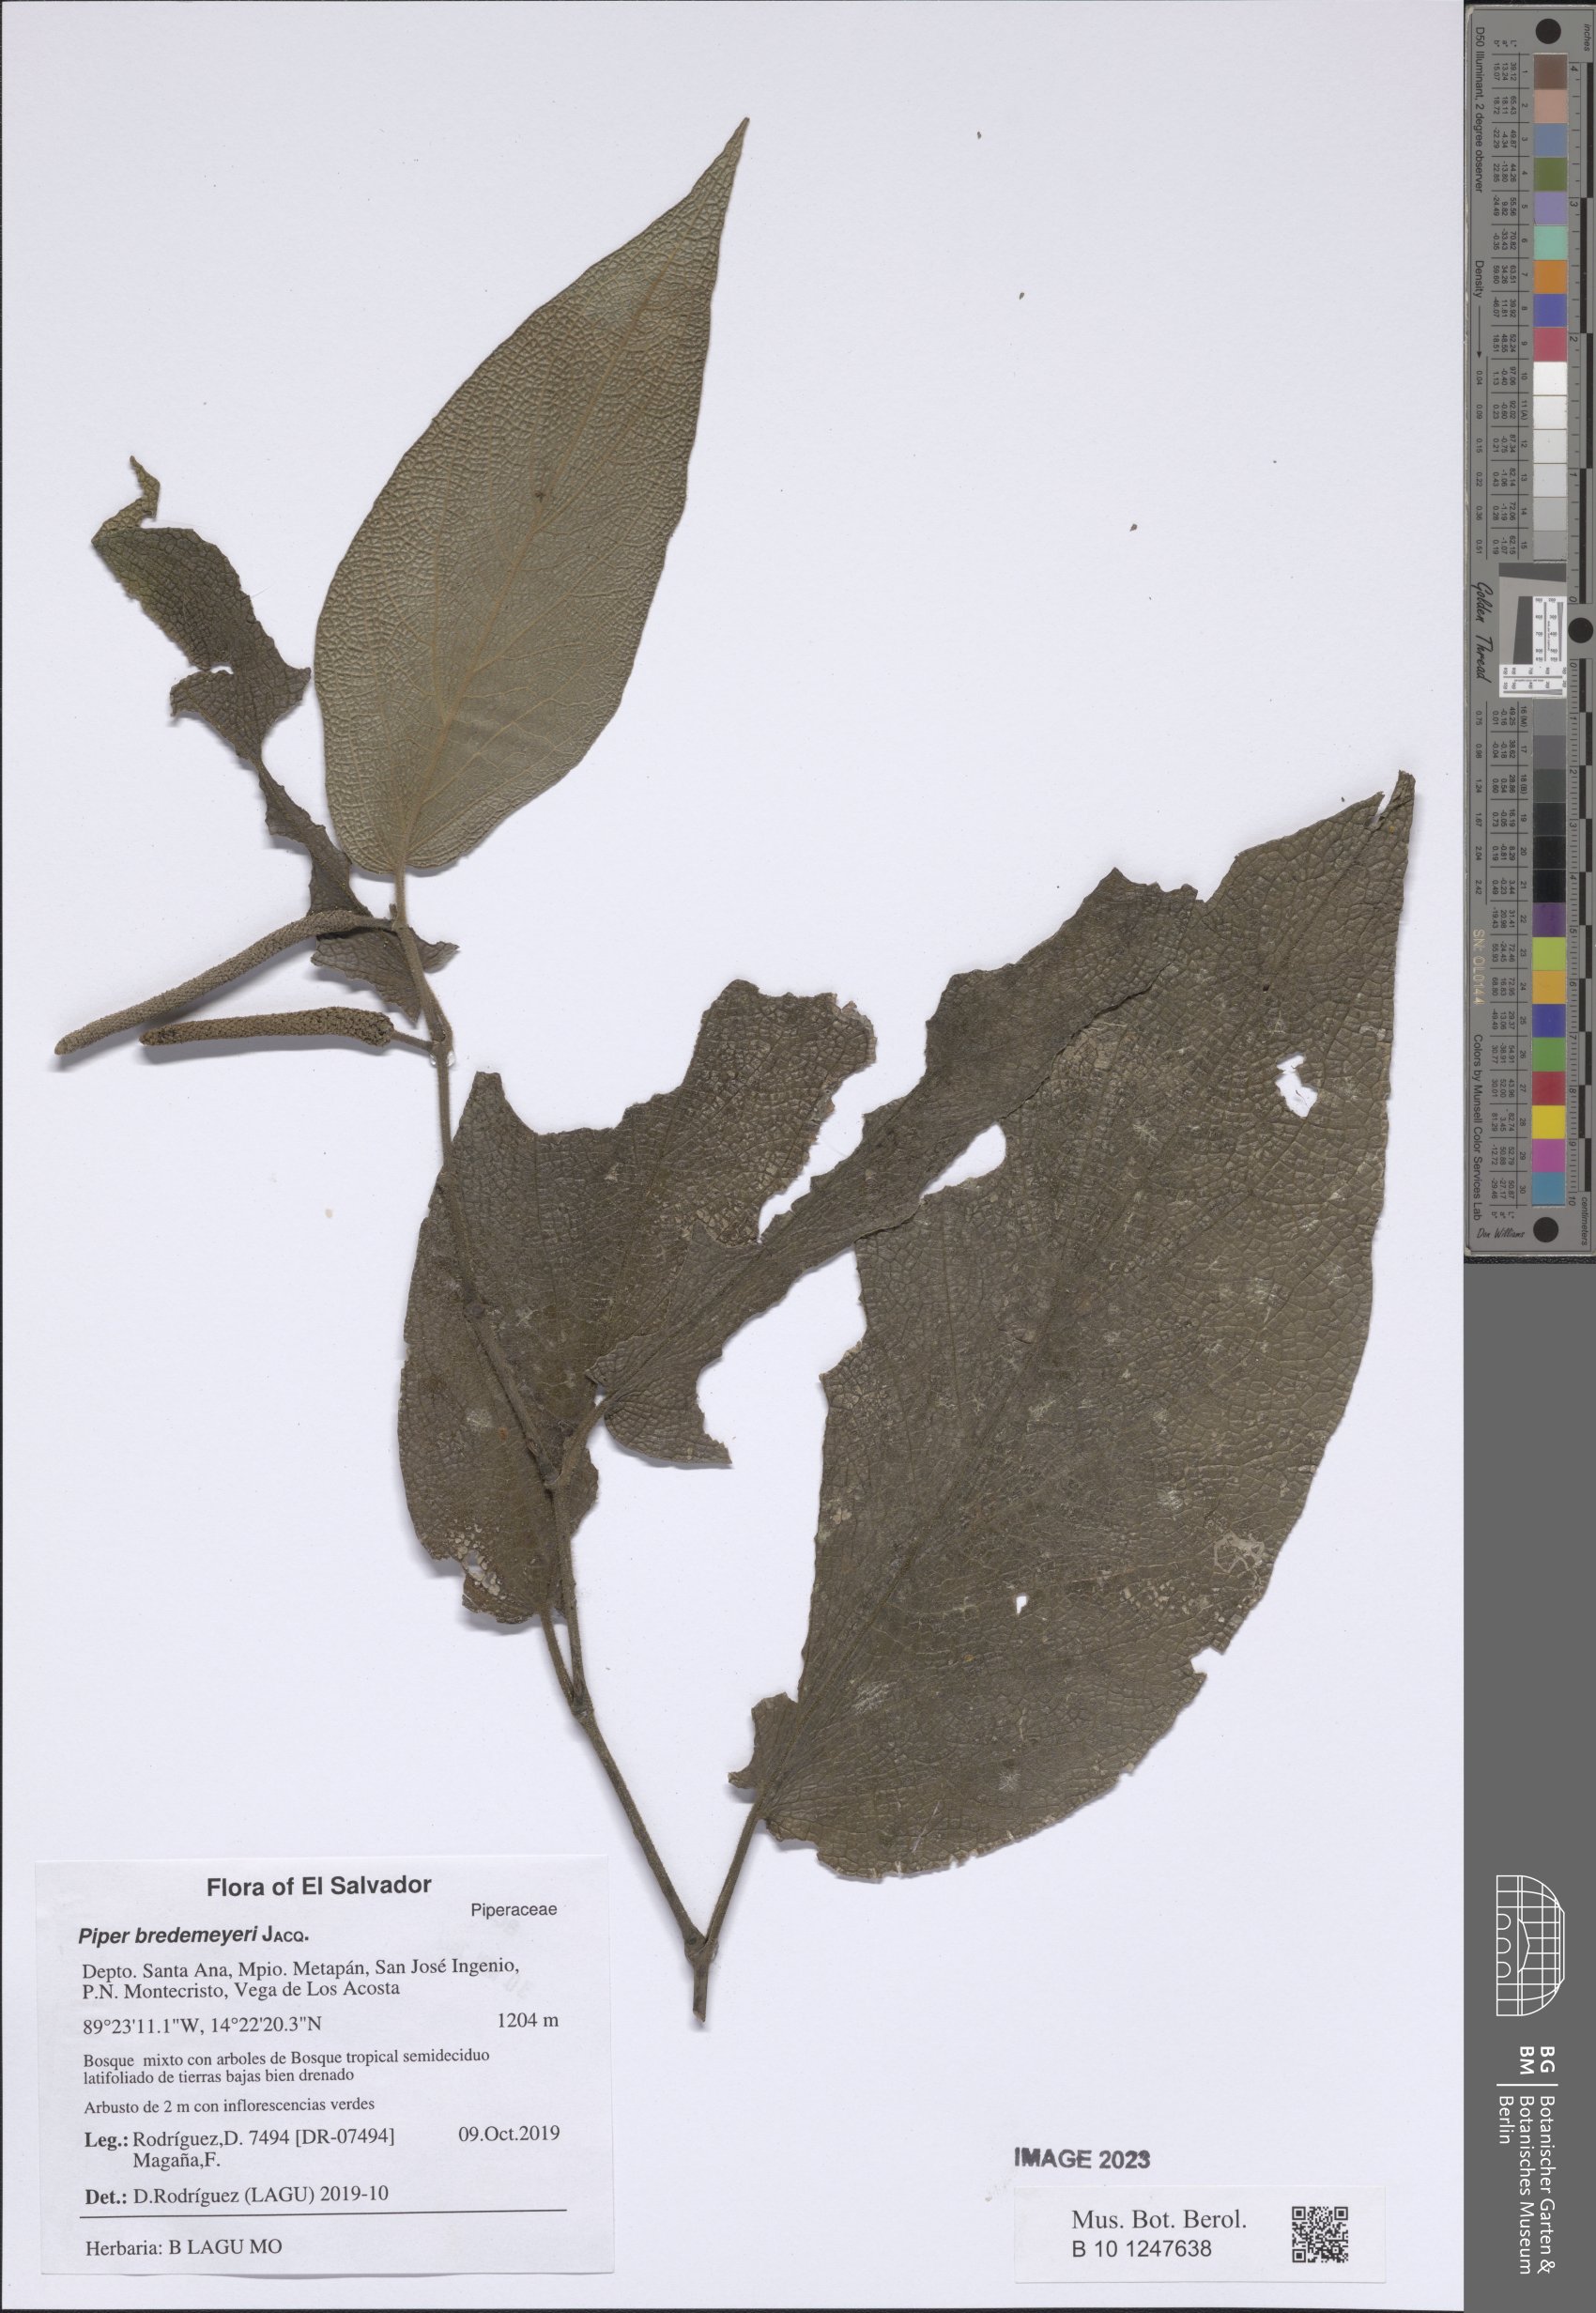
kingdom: Plantae
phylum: Tracheophyta
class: Magnoliopsida
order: Piperales
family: Piperaceae
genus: Piper
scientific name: Piper bredemeyeri
